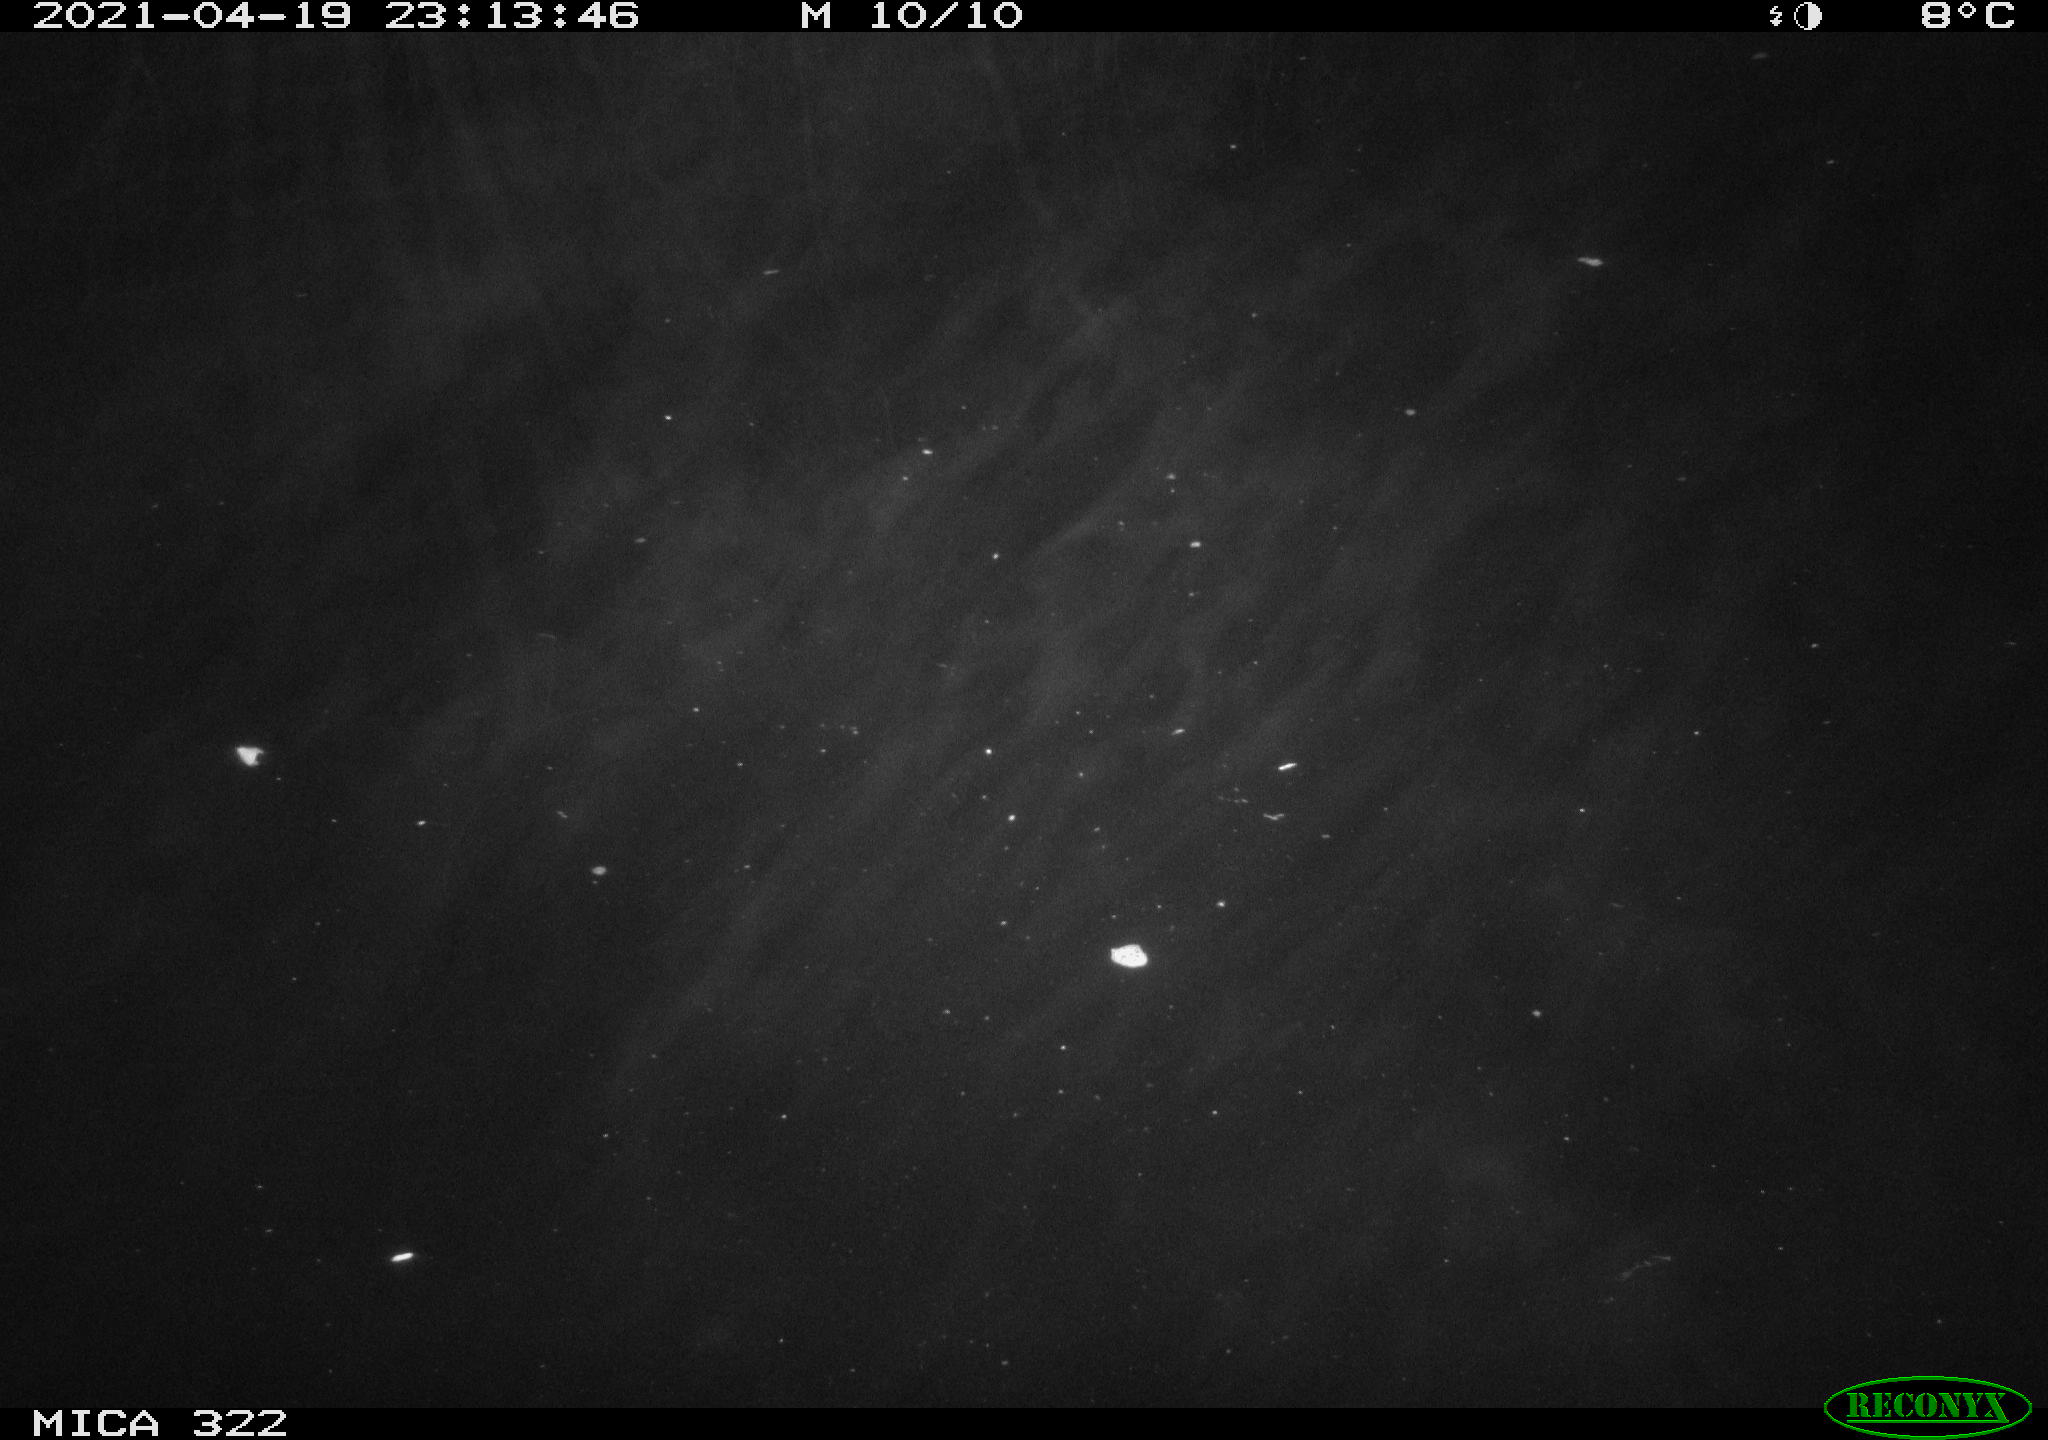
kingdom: Animalia
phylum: Chordata
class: Aves
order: Anseriformes
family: Anatidae
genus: Anas
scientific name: Anas platyrhynchos
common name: Mallard
